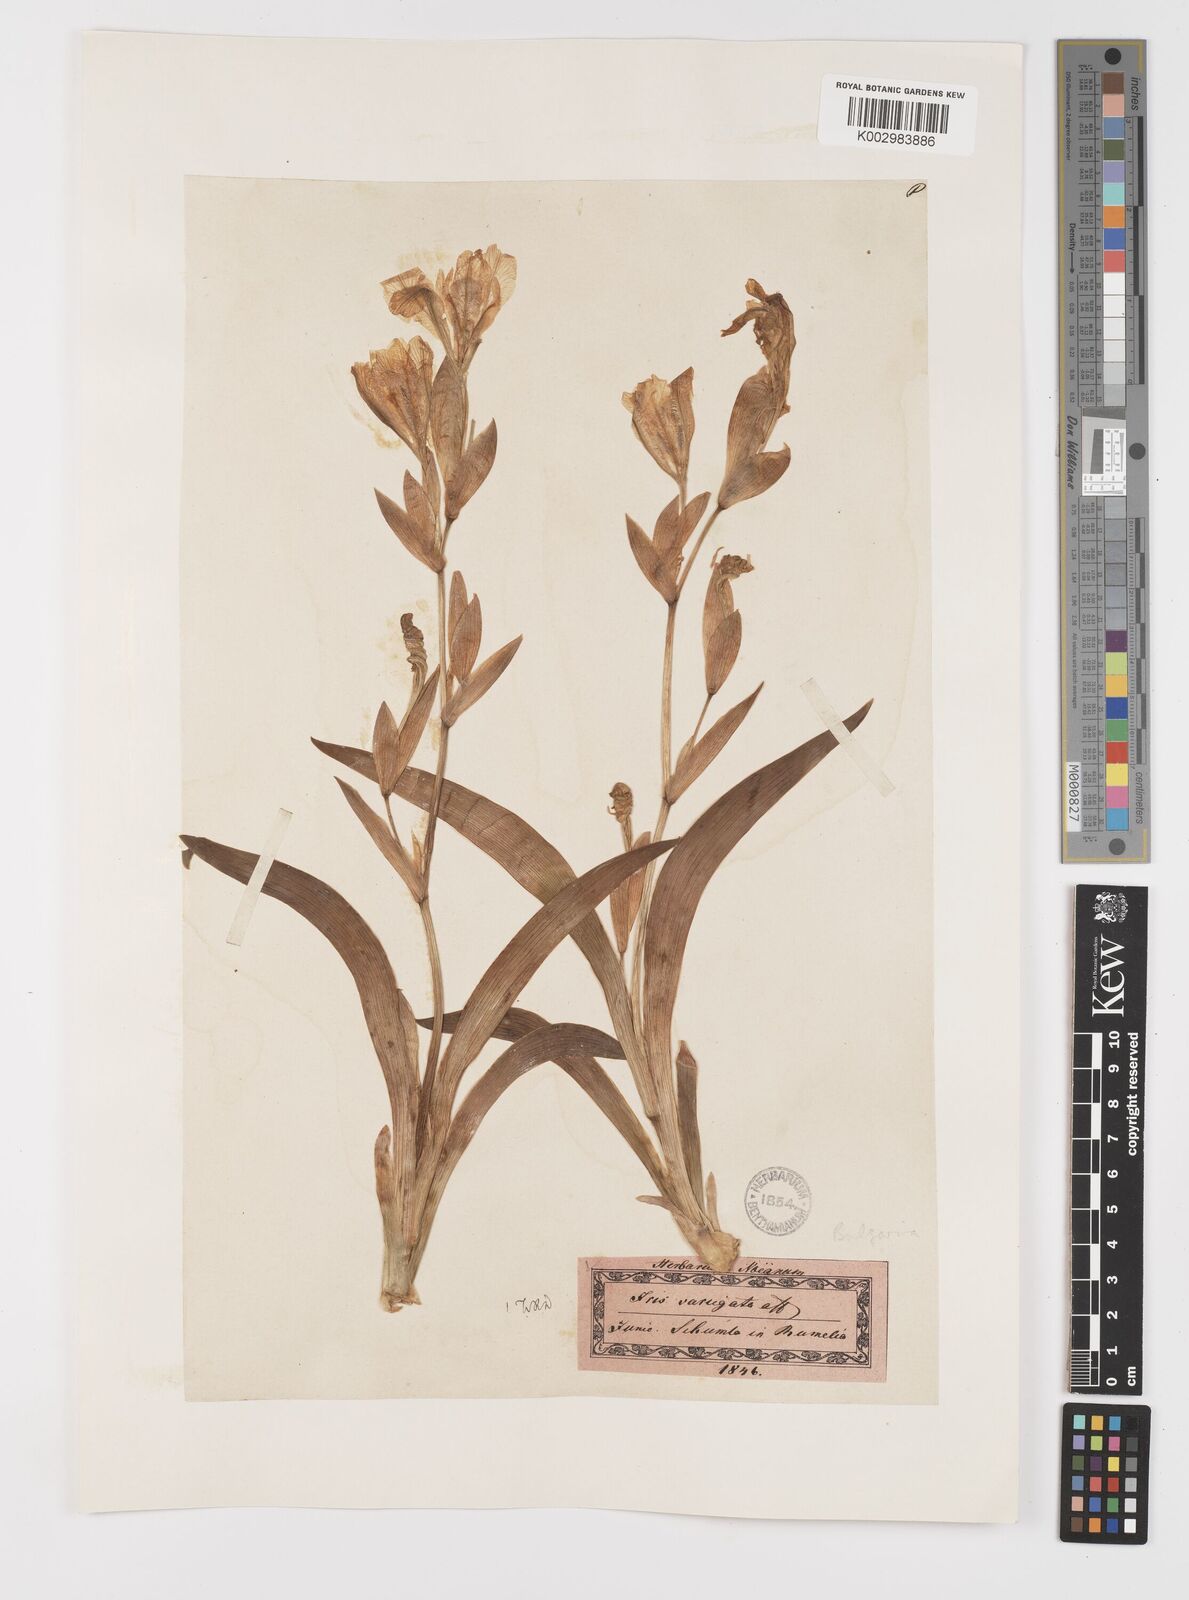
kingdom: Plantae
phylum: Tracheophyta
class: Liliopsida
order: Asparagales
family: Iridaceae
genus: Iris
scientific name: Iris variegata
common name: Hungarian iris
